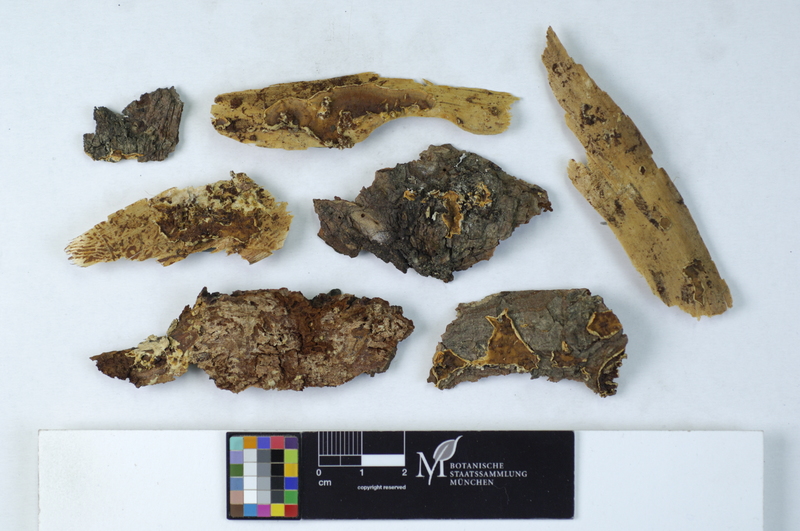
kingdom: Fungi
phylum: Basidiomycota
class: Agaricomycetes
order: Polyporales
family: Meruliaceae
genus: Phlebia
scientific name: Phlebia albomellea
